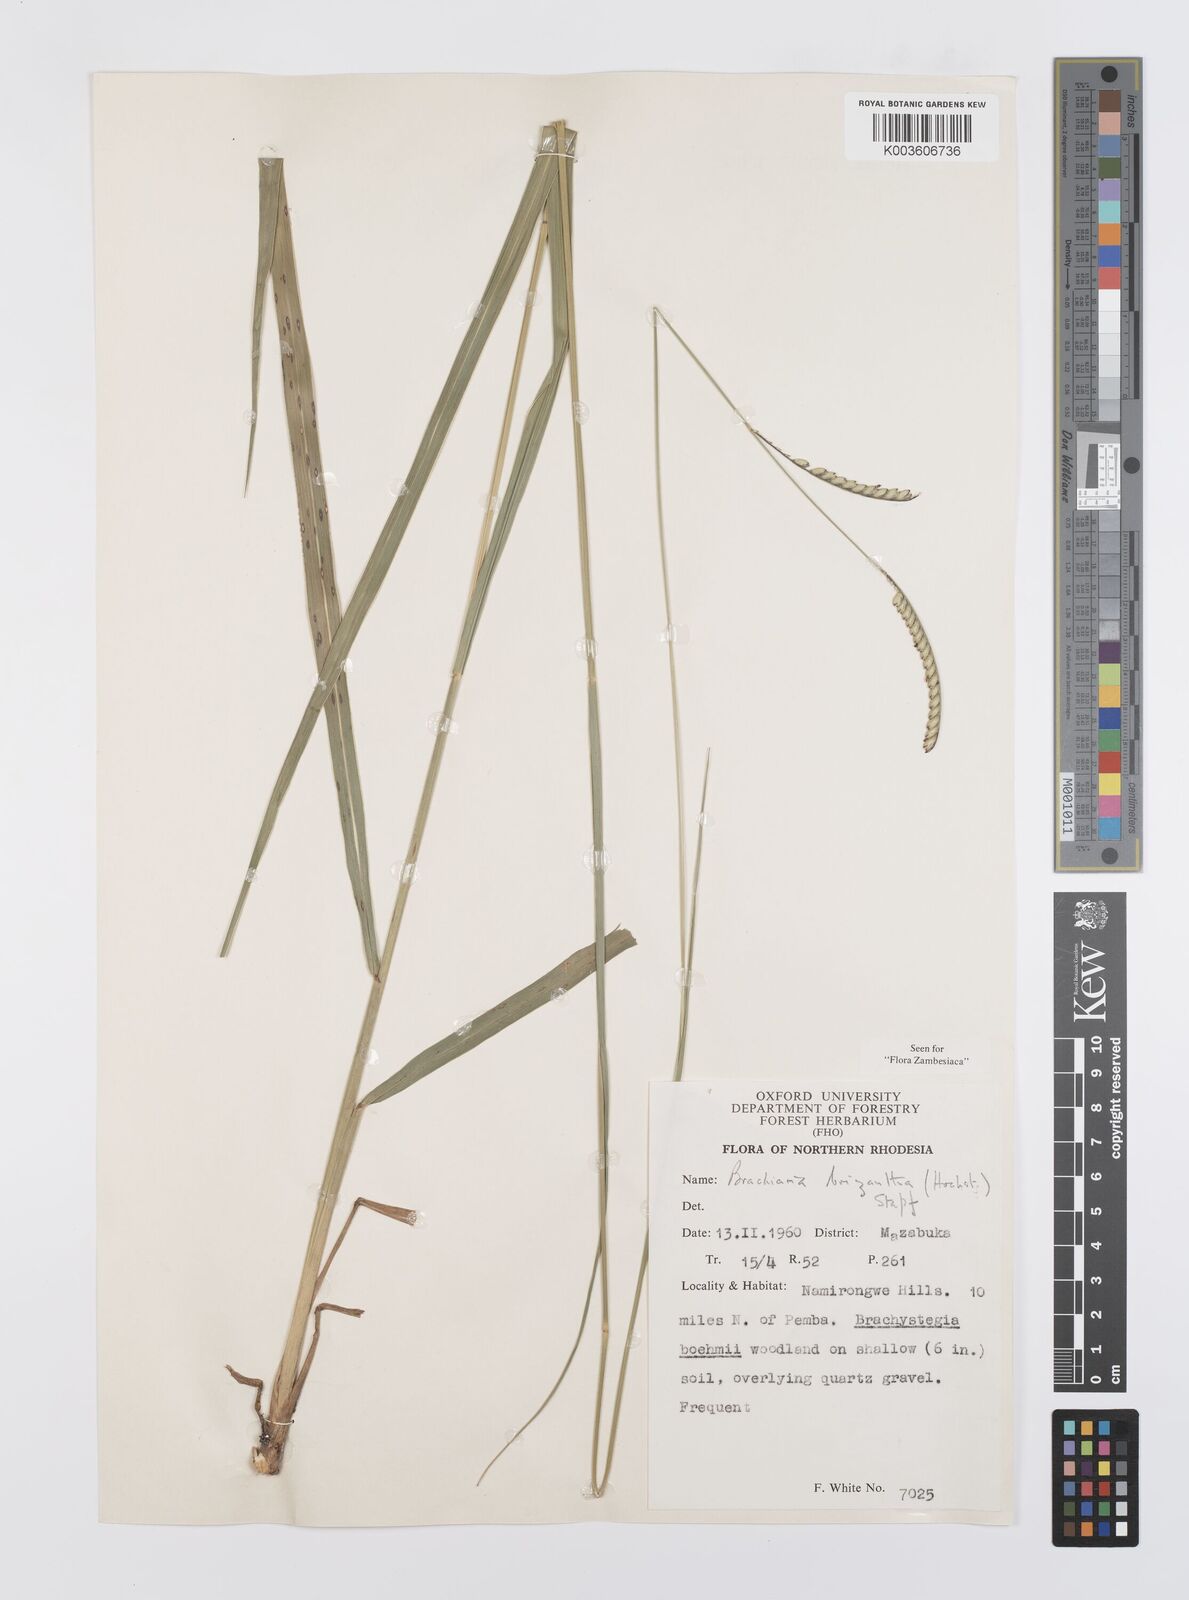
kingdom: Plantae
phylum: Tracheophyta
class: Liliopsida
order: Poales
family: Poaceae
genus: Urochloa
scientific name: Urochloa brizantha
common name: Palisade signalgrass
